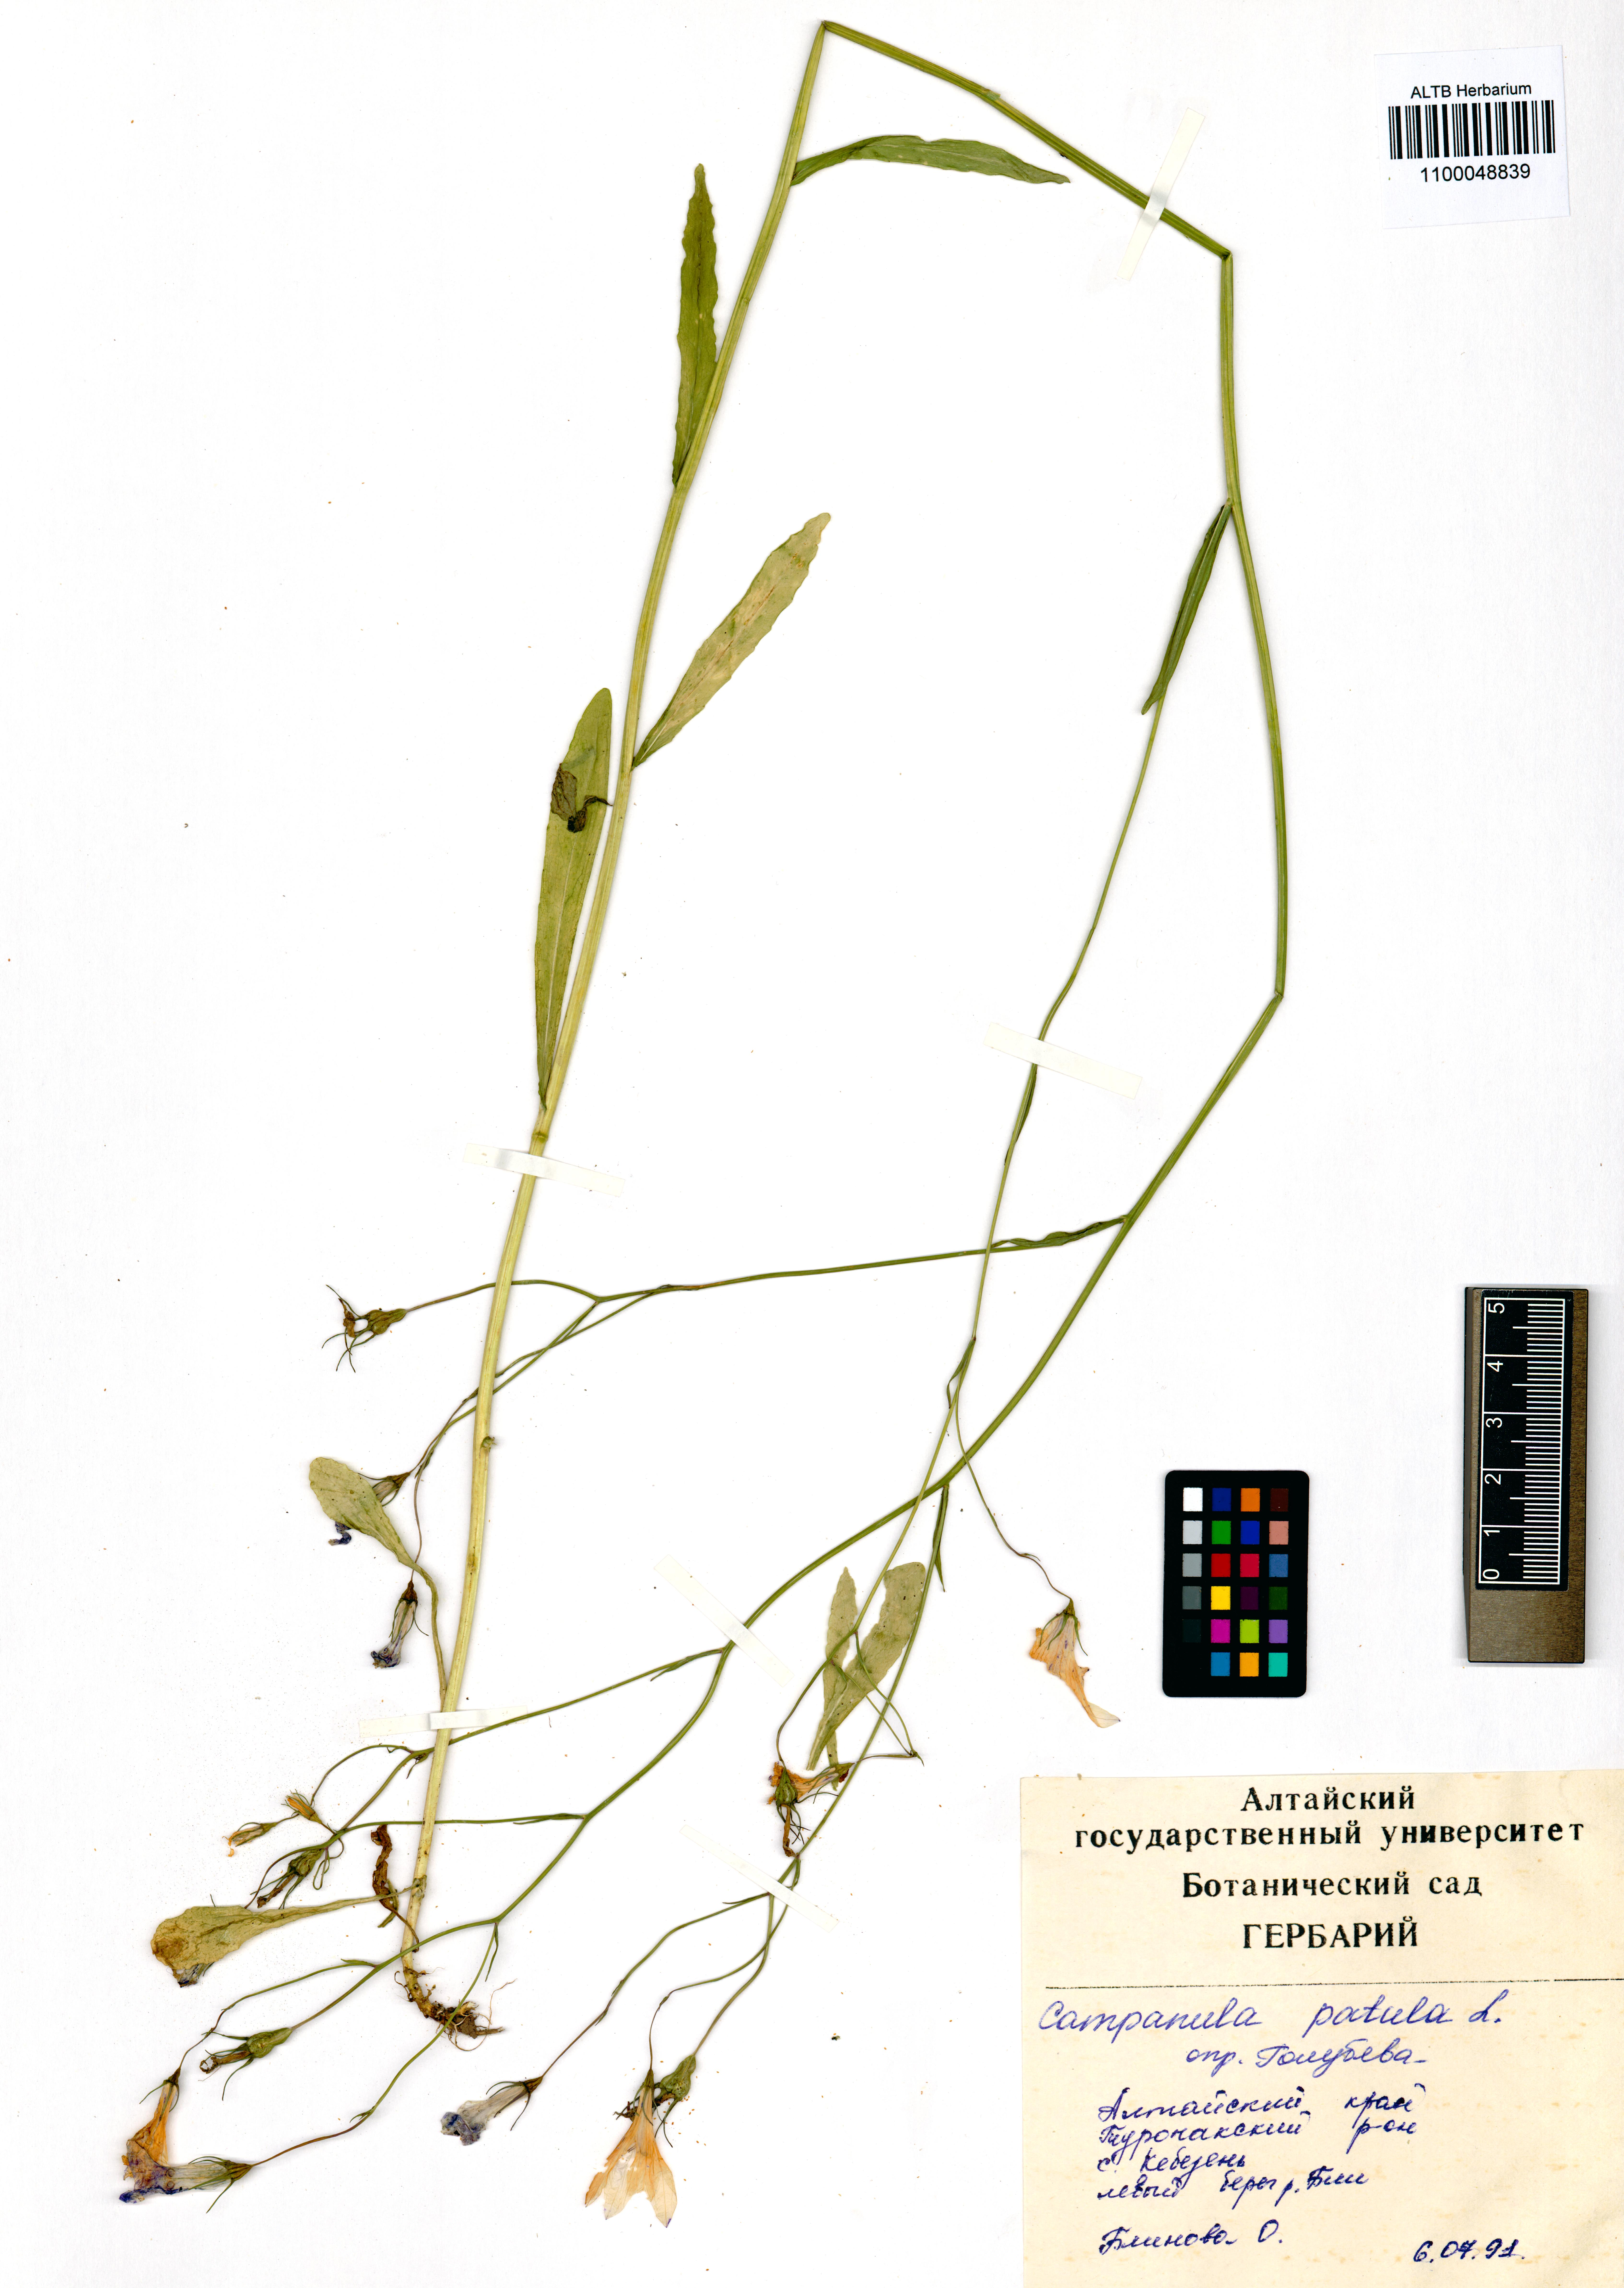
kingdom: Plantae
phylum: Tracheophyta
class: Magnoliopsida
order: Asterales
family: Campanulaceae
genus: Campanula
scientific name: Campanula patula
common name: Spreading bellflower
